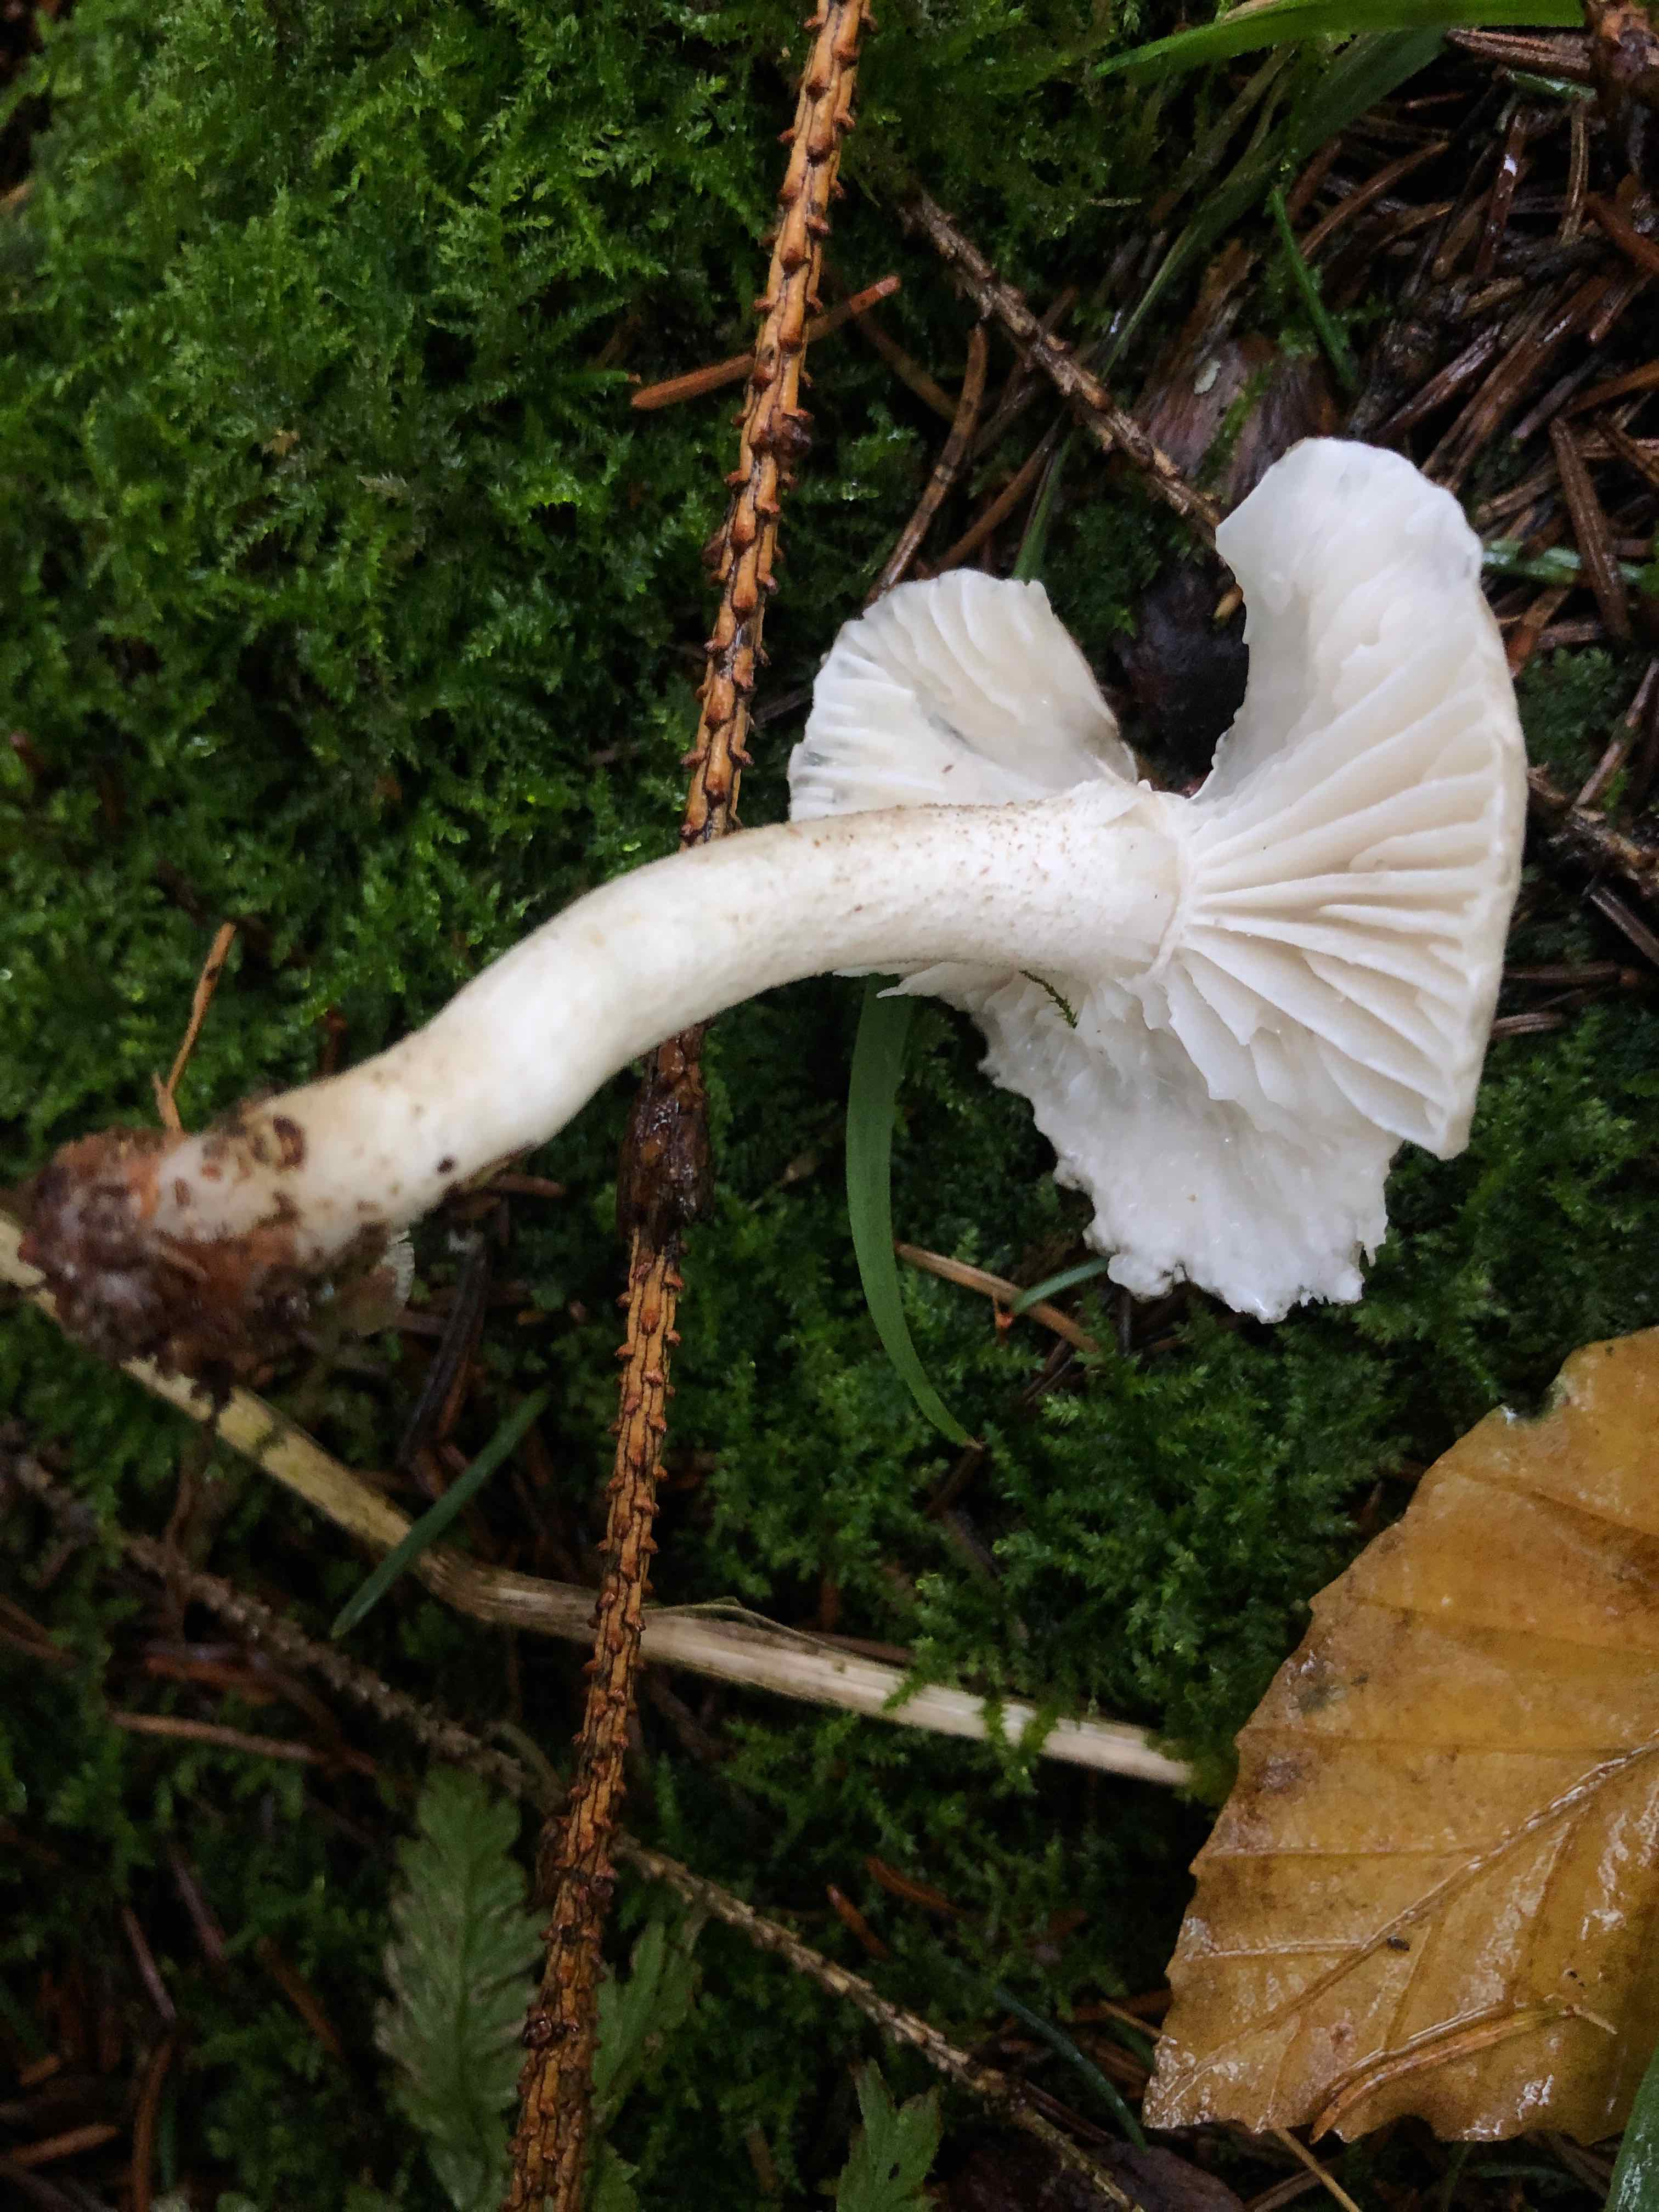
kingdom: Fungi
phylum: Basidiomycota
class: Agaricomycetes
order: Agaricales
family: Hygrophoraceae
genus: Hygrophorus
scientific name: Hygrophorus pustulatus
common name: mørkprikket sneglehat
